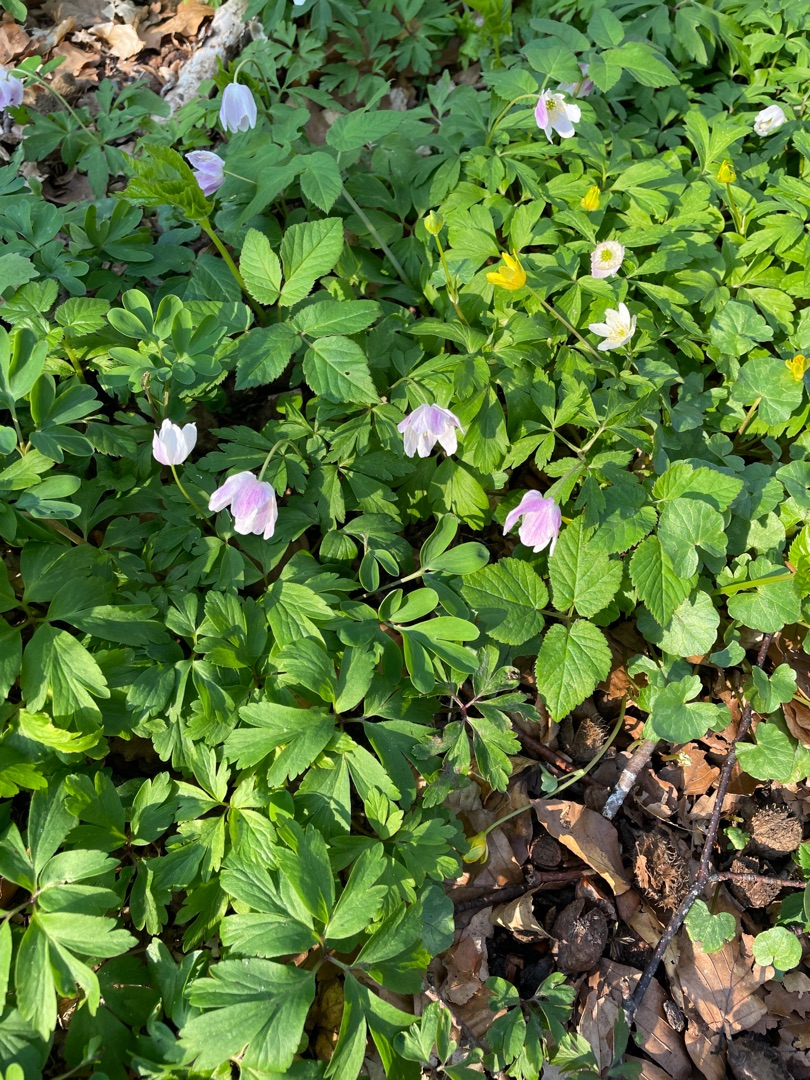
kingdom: Plantae
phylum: Tracheophyta
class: Magnoliopsida
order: Ranunculales
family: Ranunculaceae
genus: Anemone
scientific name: Anemone nemorosa
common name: Hvid anemone
